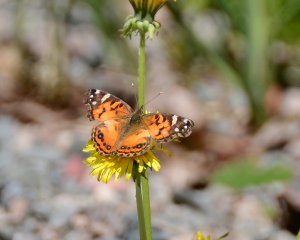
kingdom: Animalia
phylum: Arthropoda
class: Insecta
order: Lepidoptera
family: Nymphalidae
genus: Vanessa
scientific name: Vanessa virginiensis
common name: American Lady
